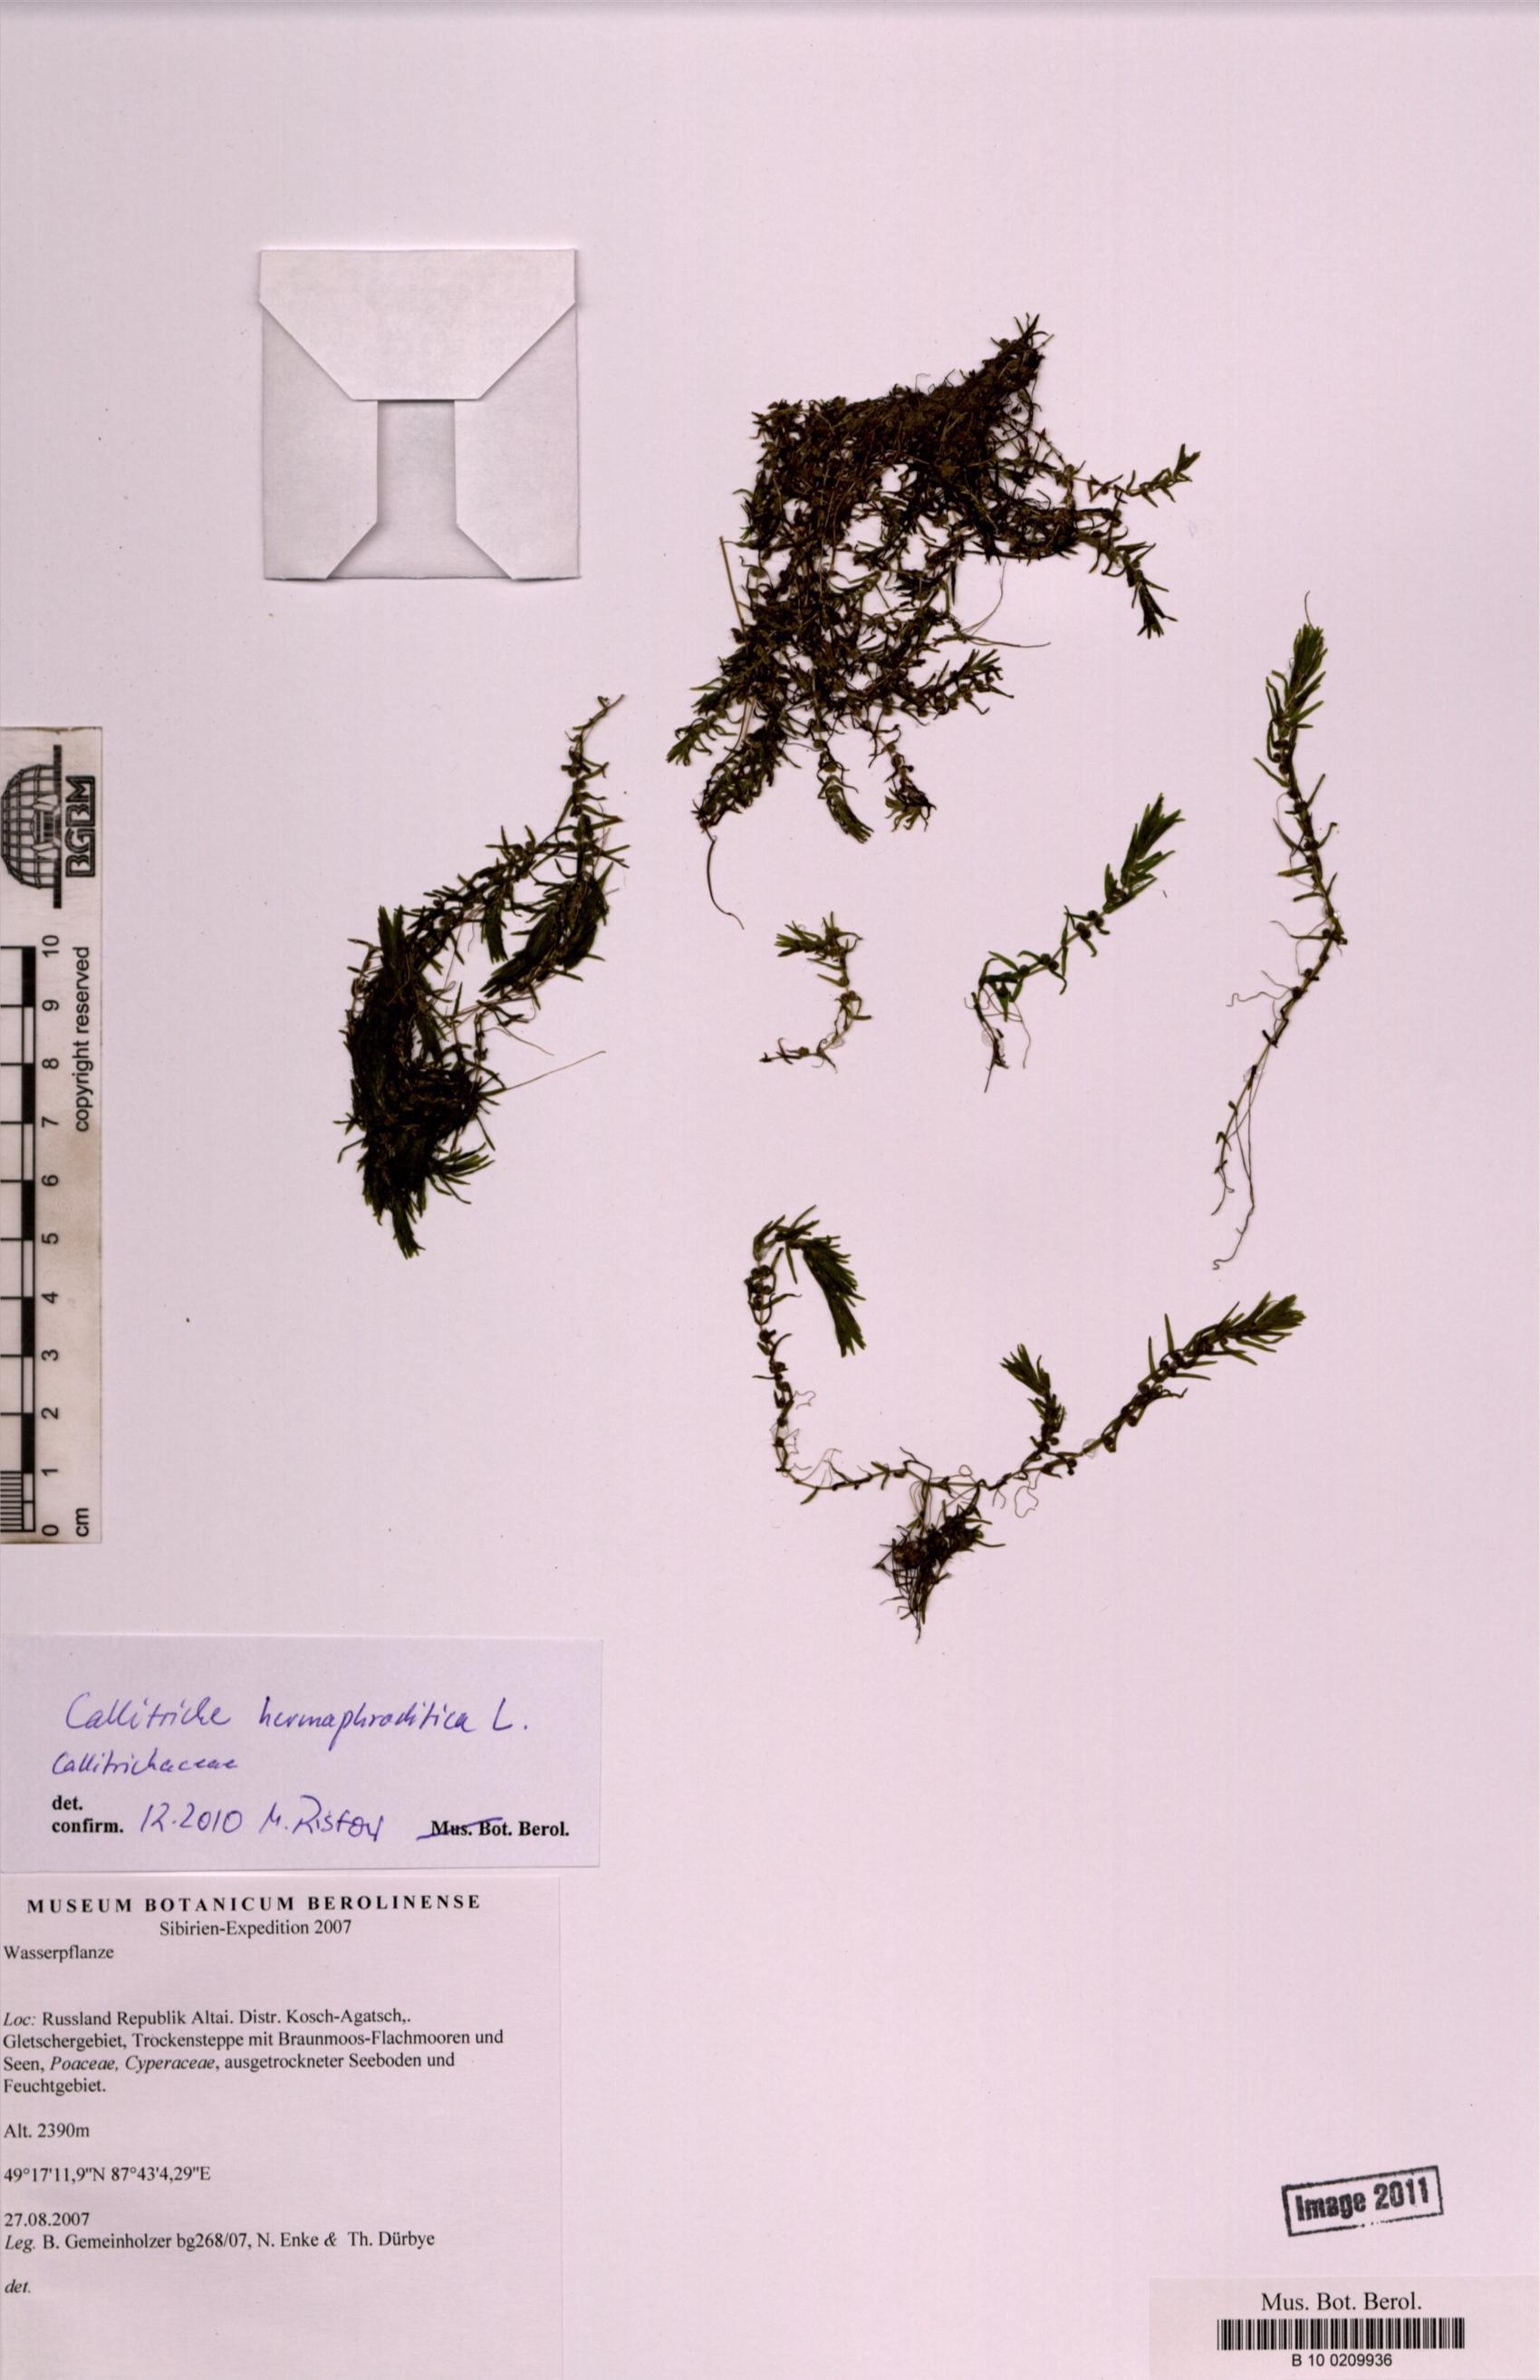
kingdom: Plantae
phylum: Tracheophyta
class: Magnoliopsida
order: Lamiales
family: Plantaginaceae
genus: Callitriche
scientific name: Callitriche hermaphroditica
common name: Autumnal water-starwort
